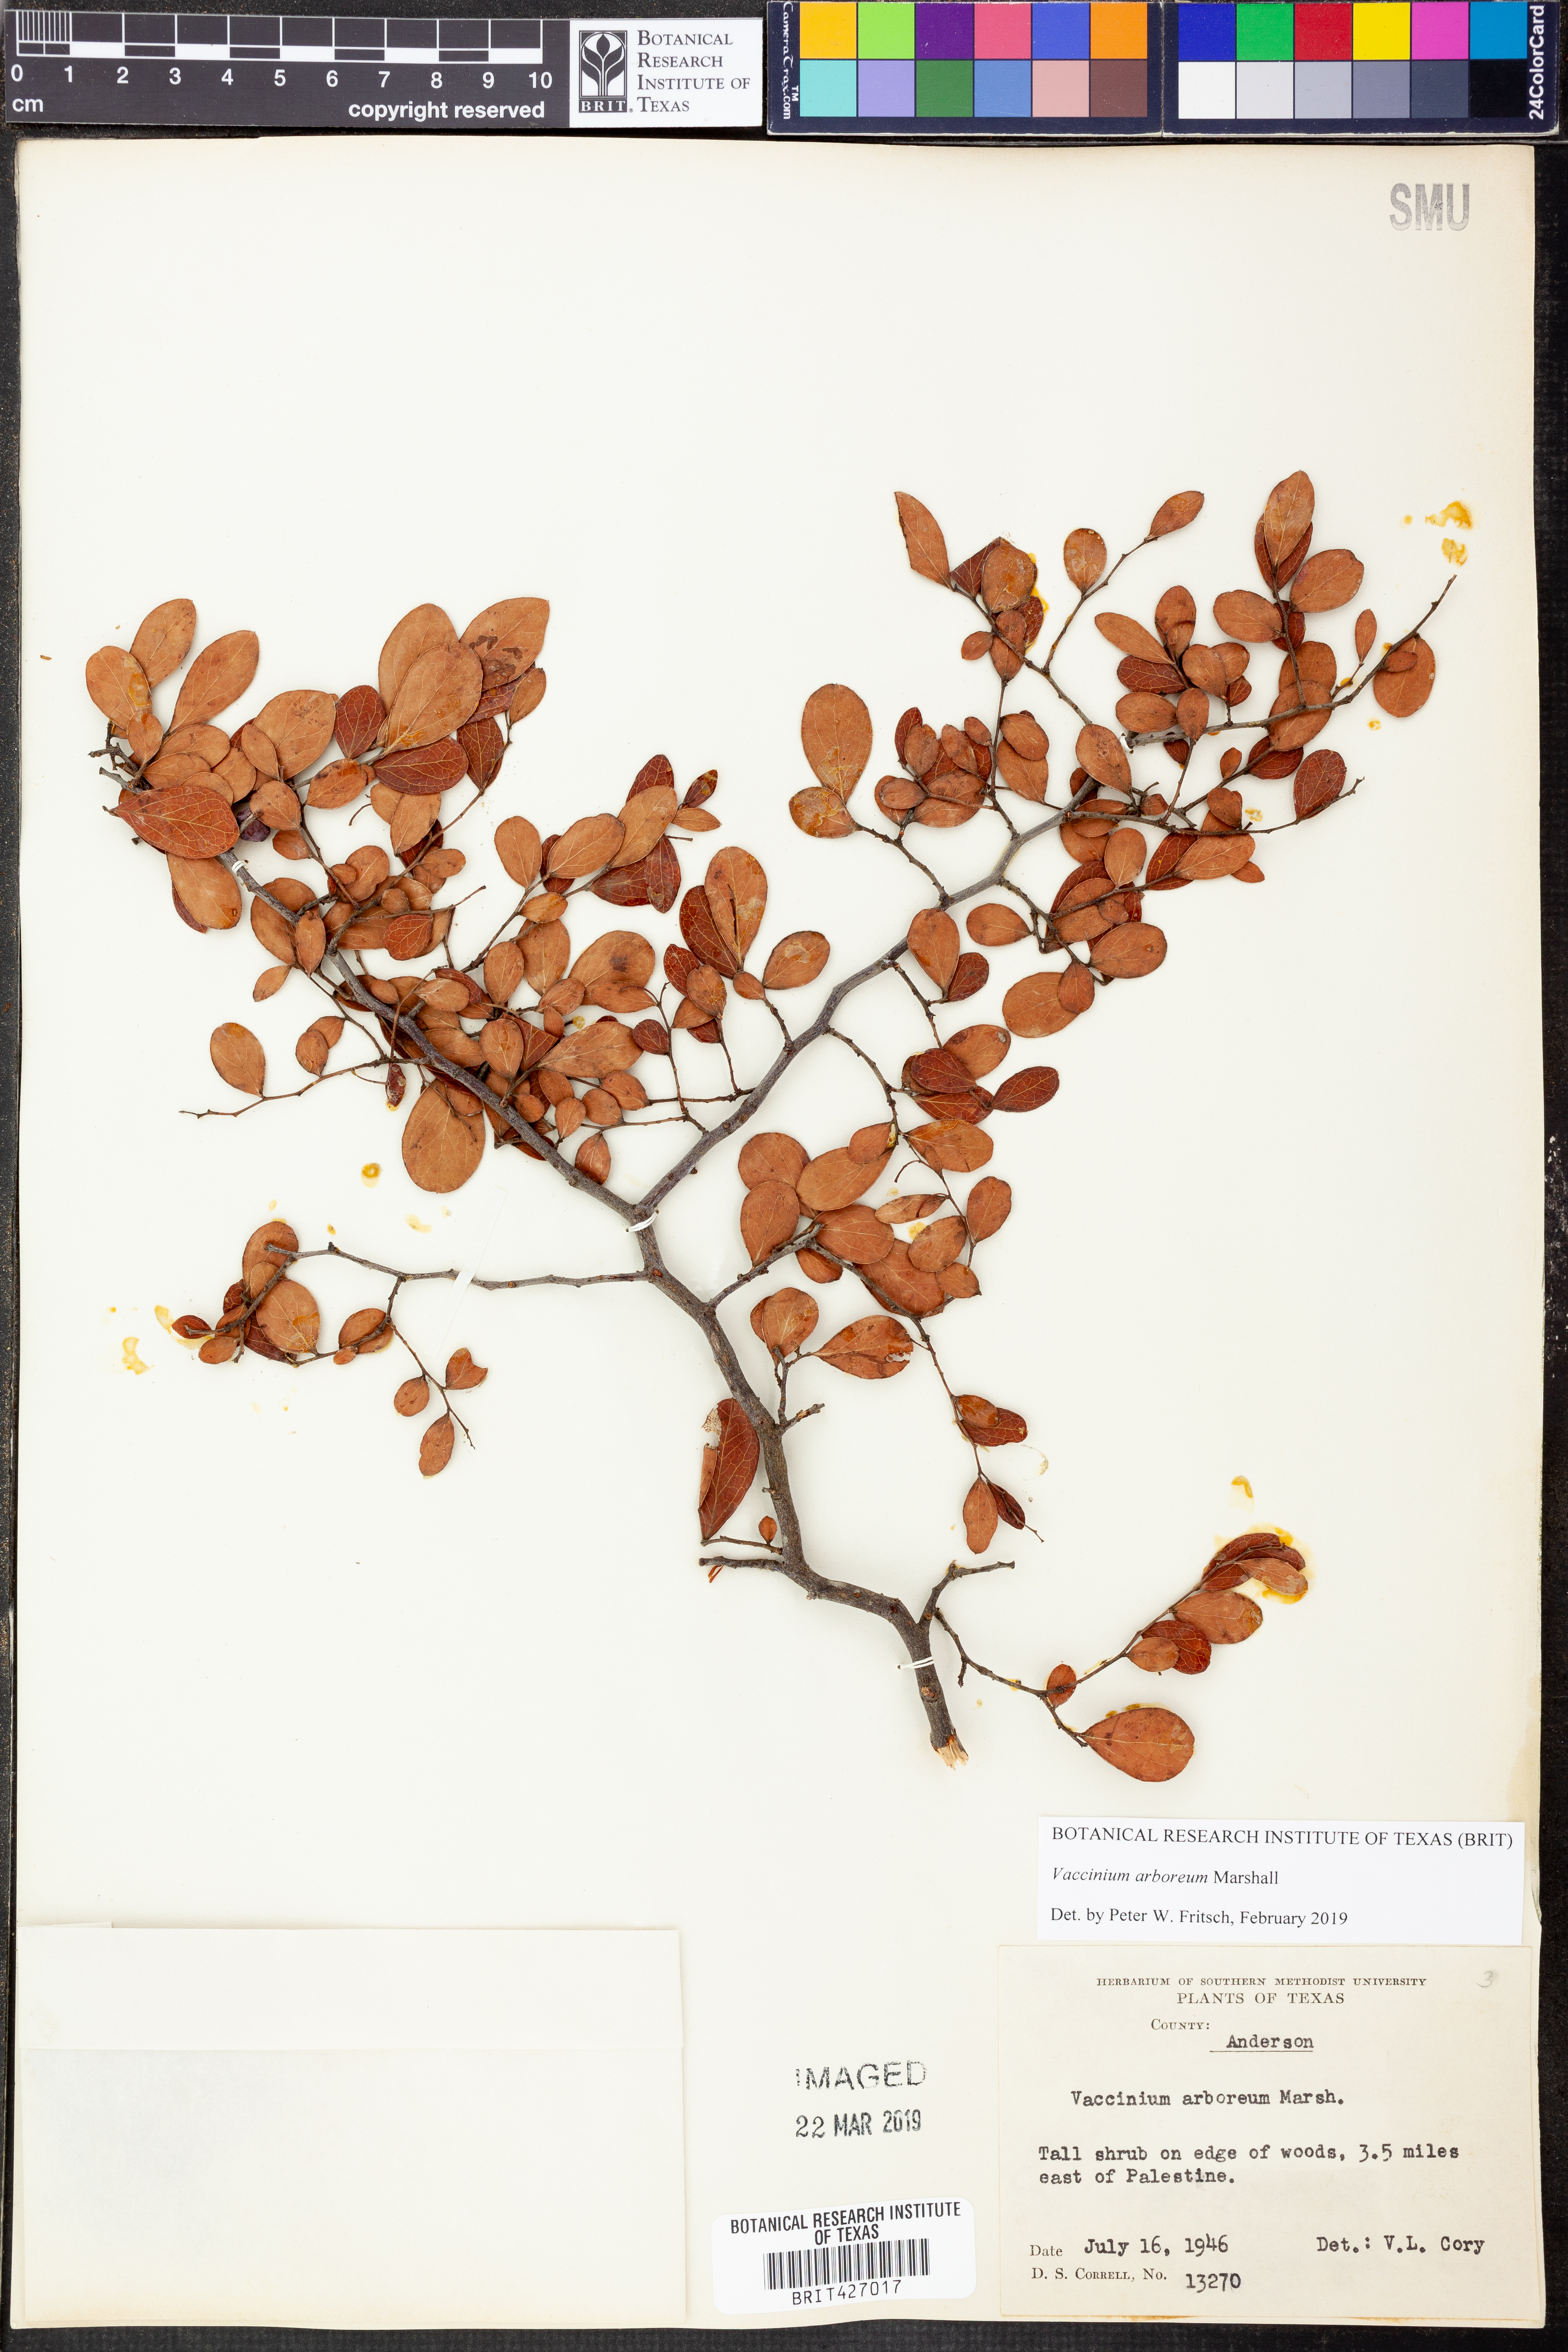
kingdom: Plantae
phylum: Tracheophyta
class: Magnoliopsida
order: Ericales
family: Ericaceae
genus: Vaccinium
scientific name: Vaccinium arboreum
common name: Farkleberry
